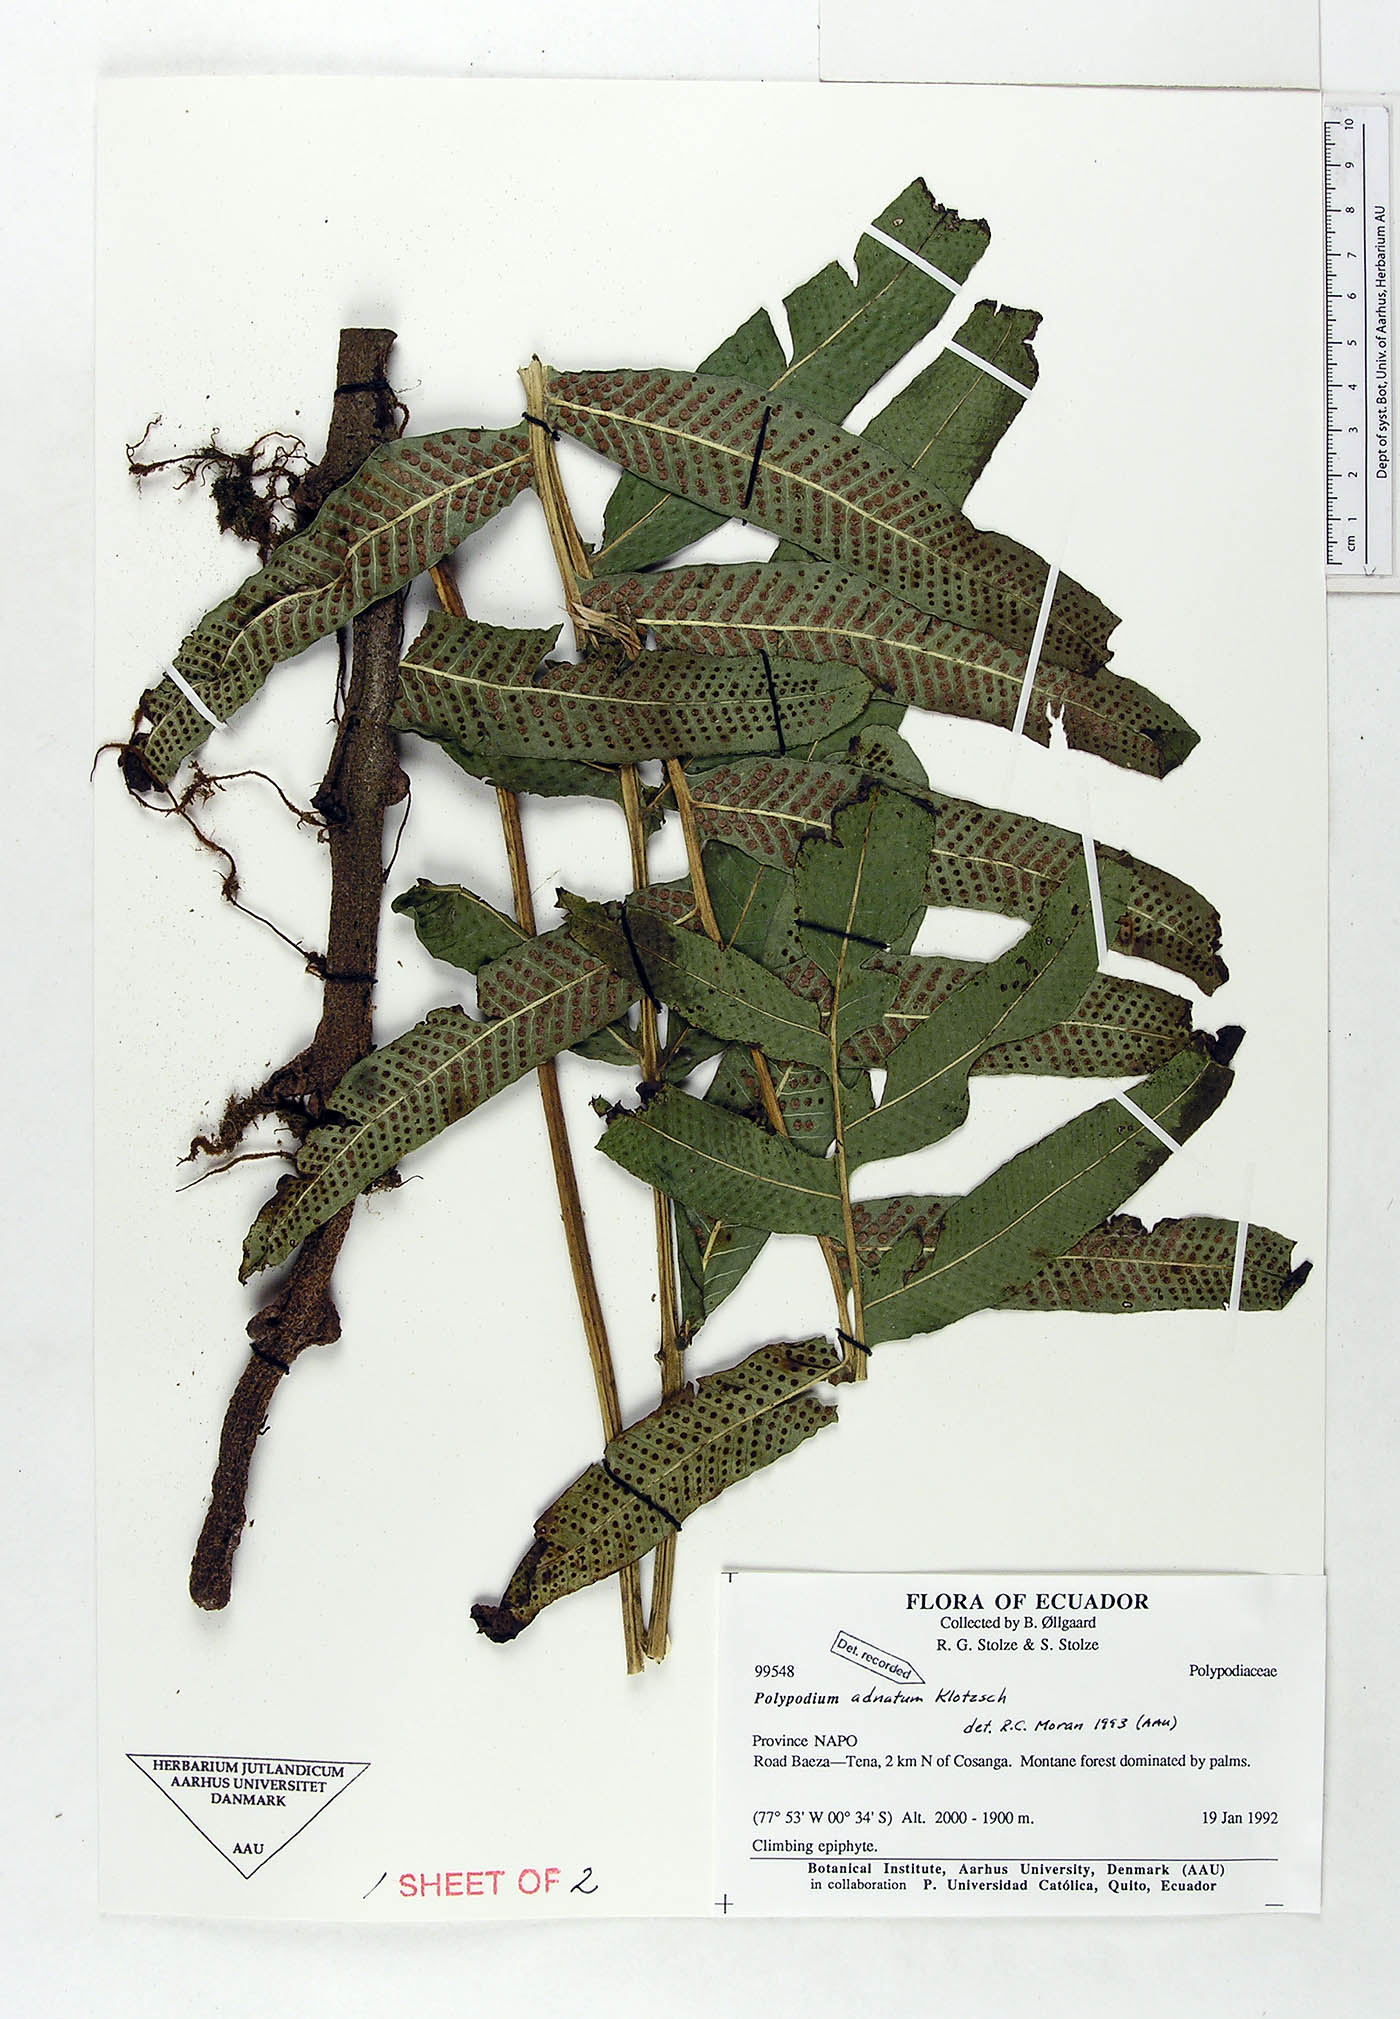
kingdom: Plantae
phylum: Tracheophyta
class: Polypodiopsida
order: Polypodiales
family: Polypodiaceae
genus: Serpocaulon
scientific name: Serpocaulon adnatum
